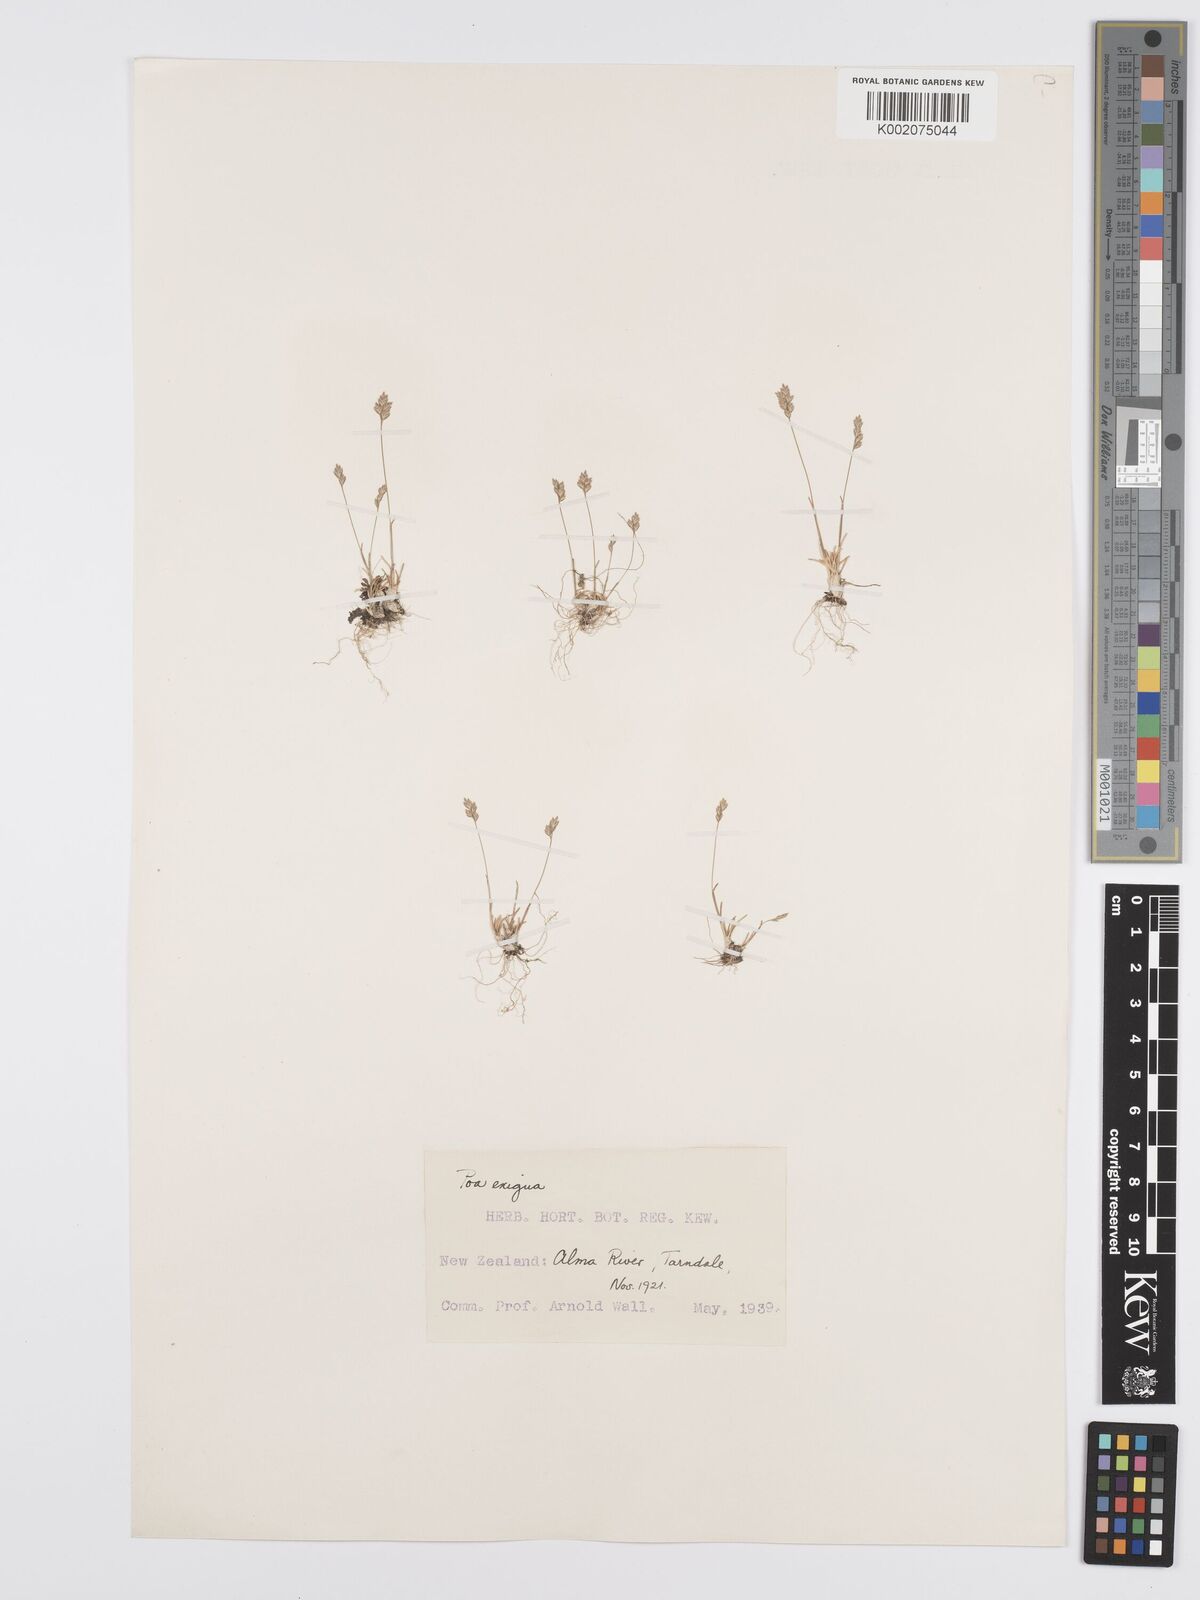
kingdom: Plantae
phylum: Tracheophyta
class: Liliopsida
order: Poales
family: Poaceae
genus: Poa
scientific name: Poa maniototo
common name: Desert poa
